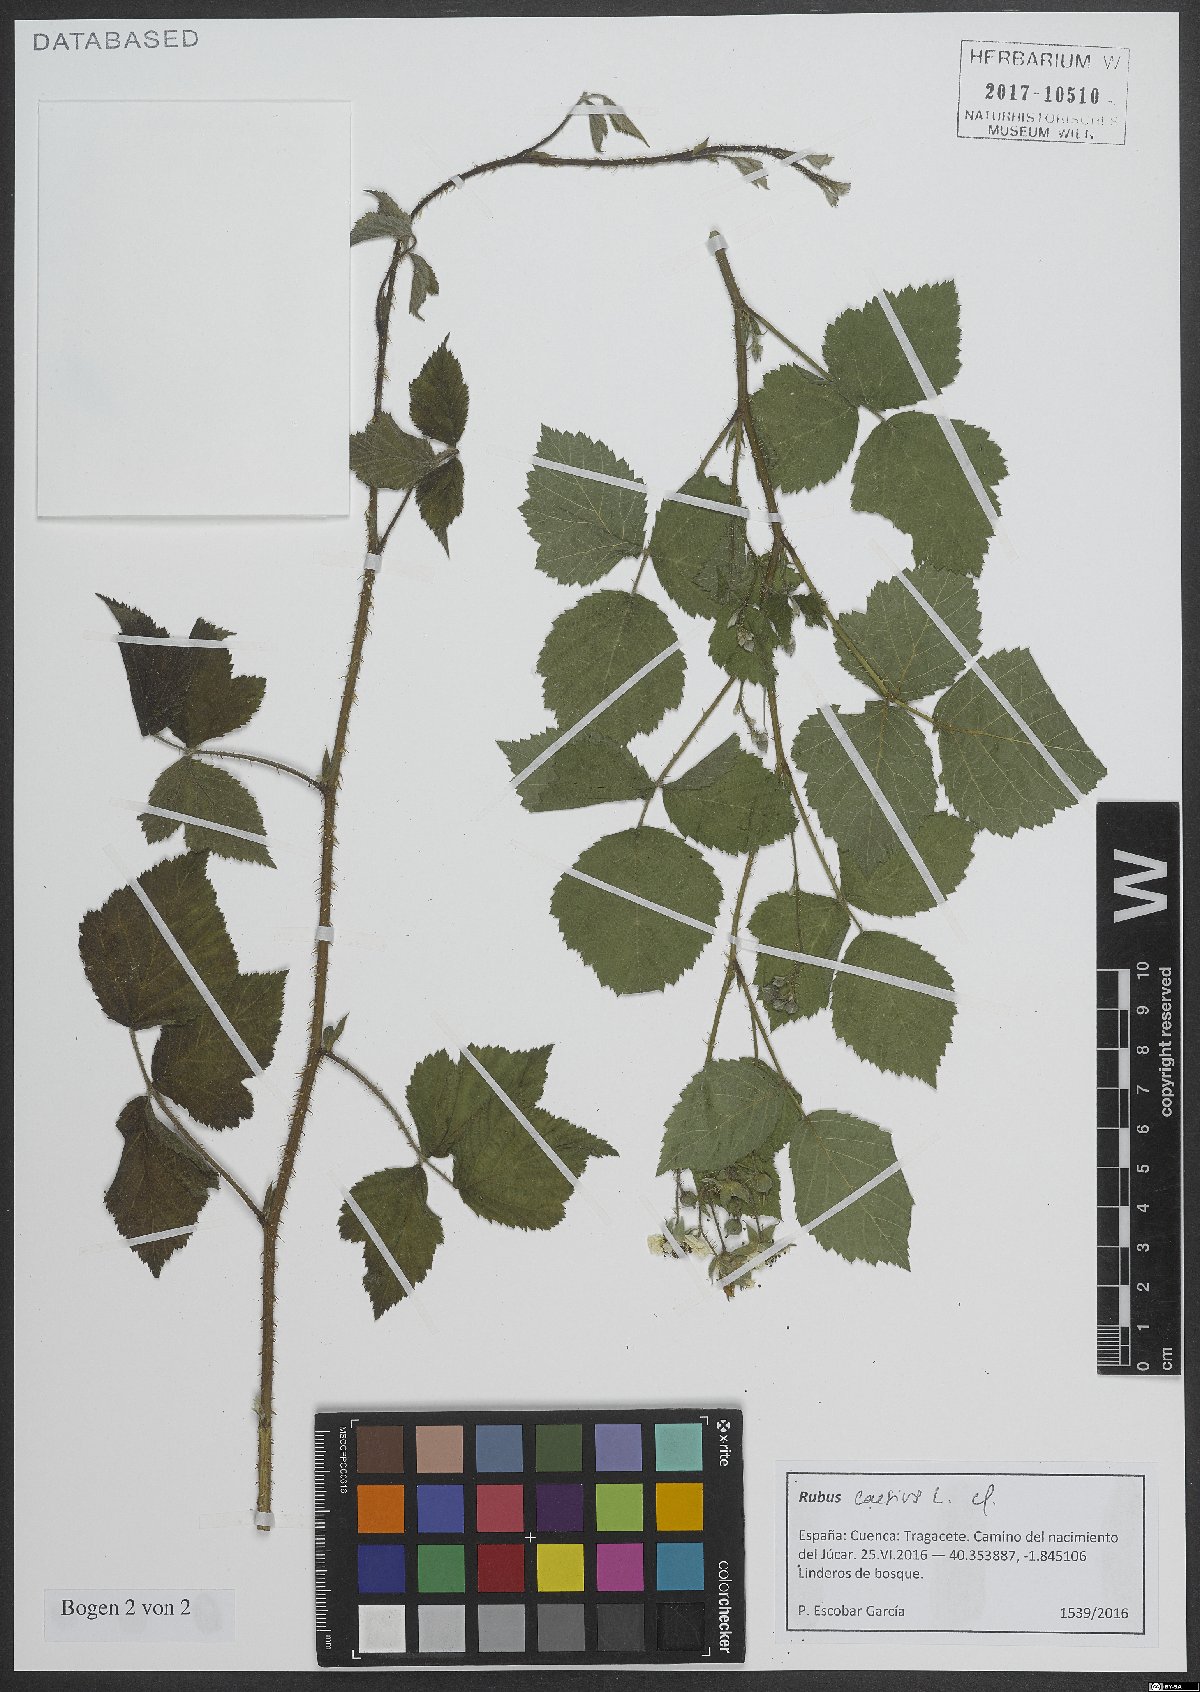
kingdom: Plantae
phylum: Tracheophyta
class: Magnoliopsida
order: Rosales
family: Rosaceae
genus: Rubus
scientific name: Rubus caesius
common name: Dewberry
